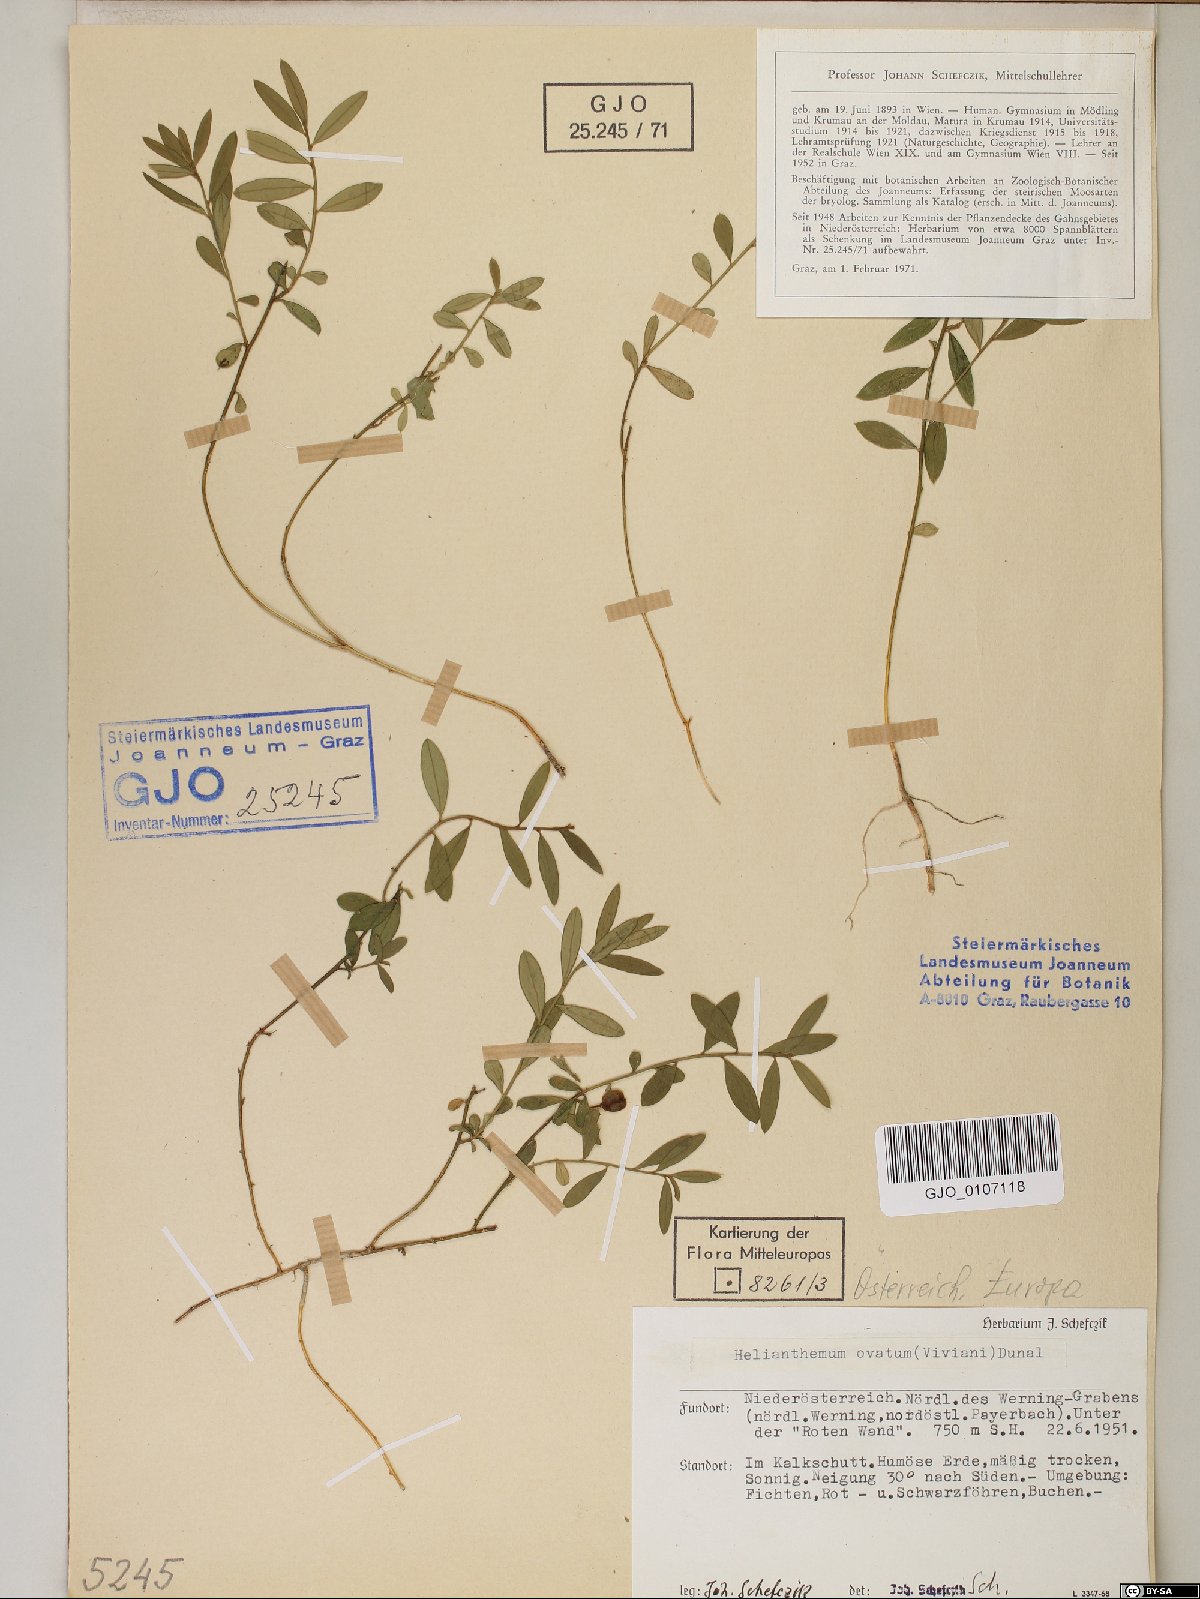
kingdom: Plantae
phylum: Tracheophyta
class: Magnoliopsida
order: Malvales
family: Cistaceae
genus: Helianthemum
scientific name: Helianthemum nummularium
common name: Common rock-rose
